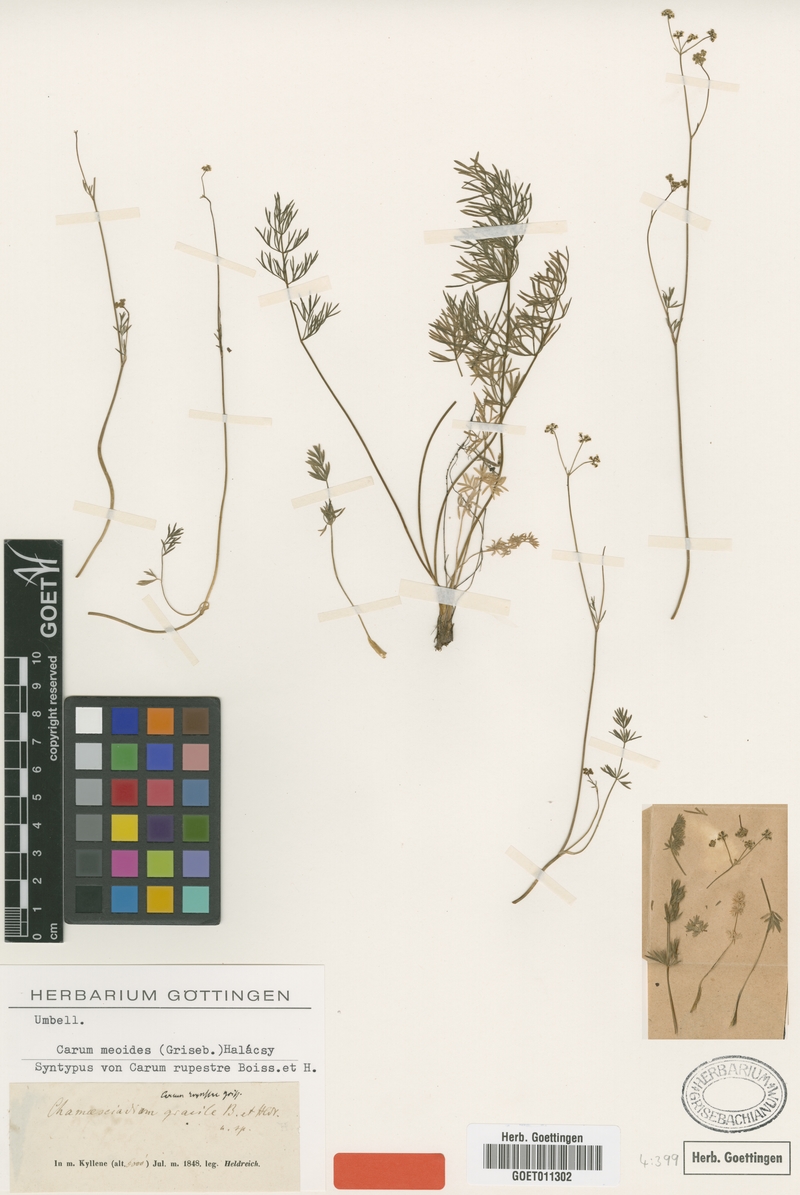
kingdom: Plantae
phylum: Tracheophyta
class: Magnoliopsida
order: Apiales
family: Apiaceae
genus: Carum
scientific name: Carum meoides
